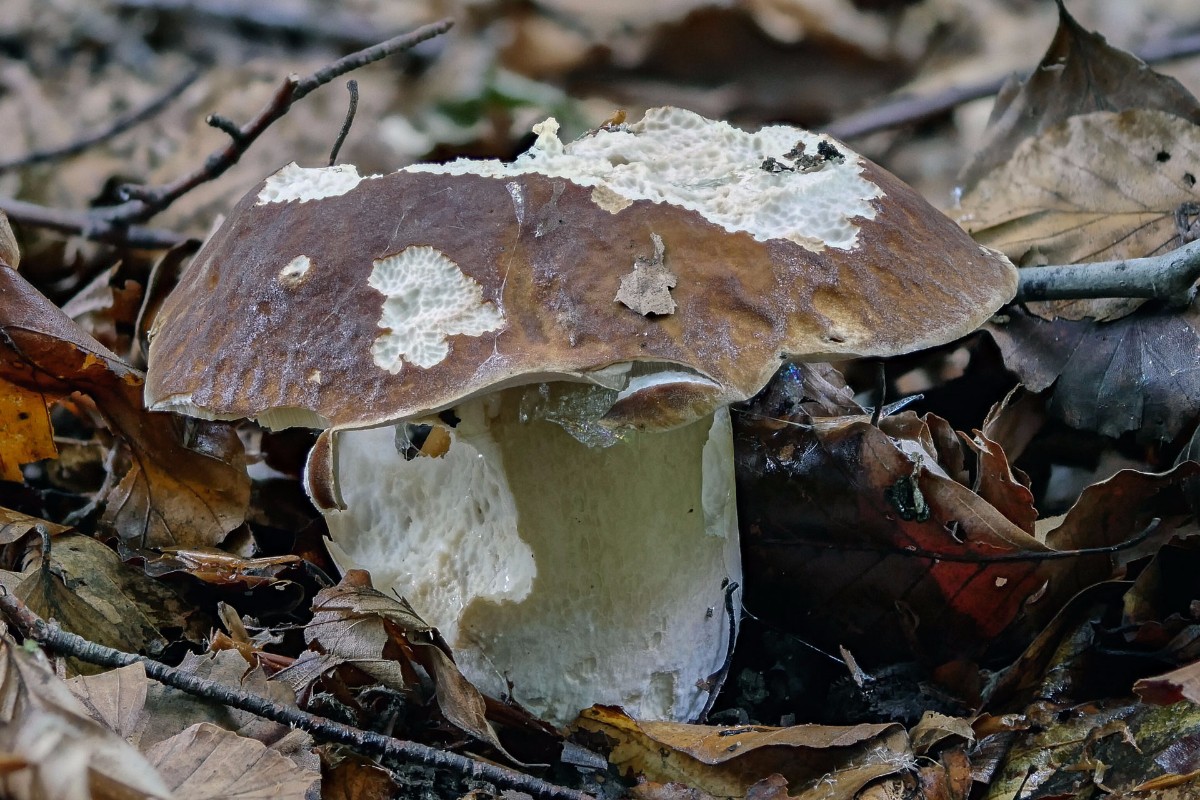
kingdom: Fungi
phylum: Basidiomycota
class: Agaricomycetes
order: Boletales
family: Boletaceae
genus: Boletus
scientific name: Boletus edulis
